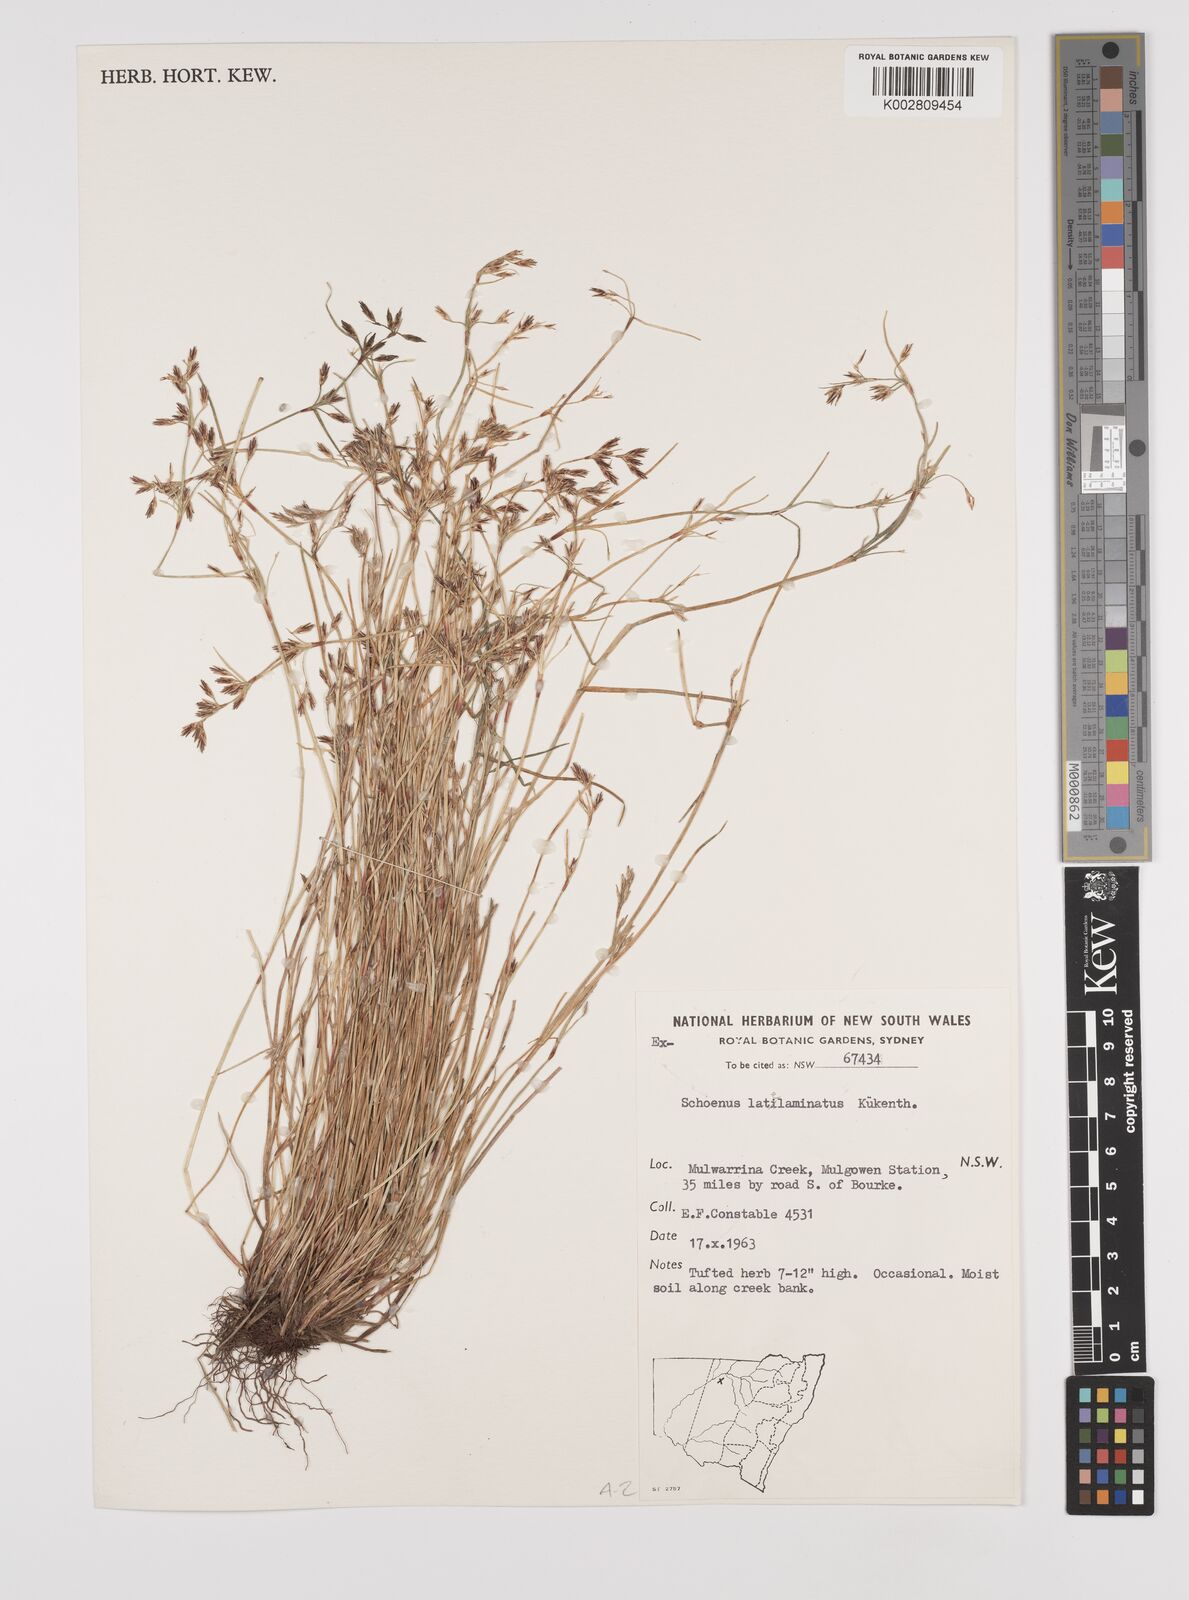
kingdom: Plantae
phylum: Tracheophyta
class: Liliopsida
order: Poales
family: Cyperaceae
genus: Schoenus
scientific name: Schoenus latelaminatus
